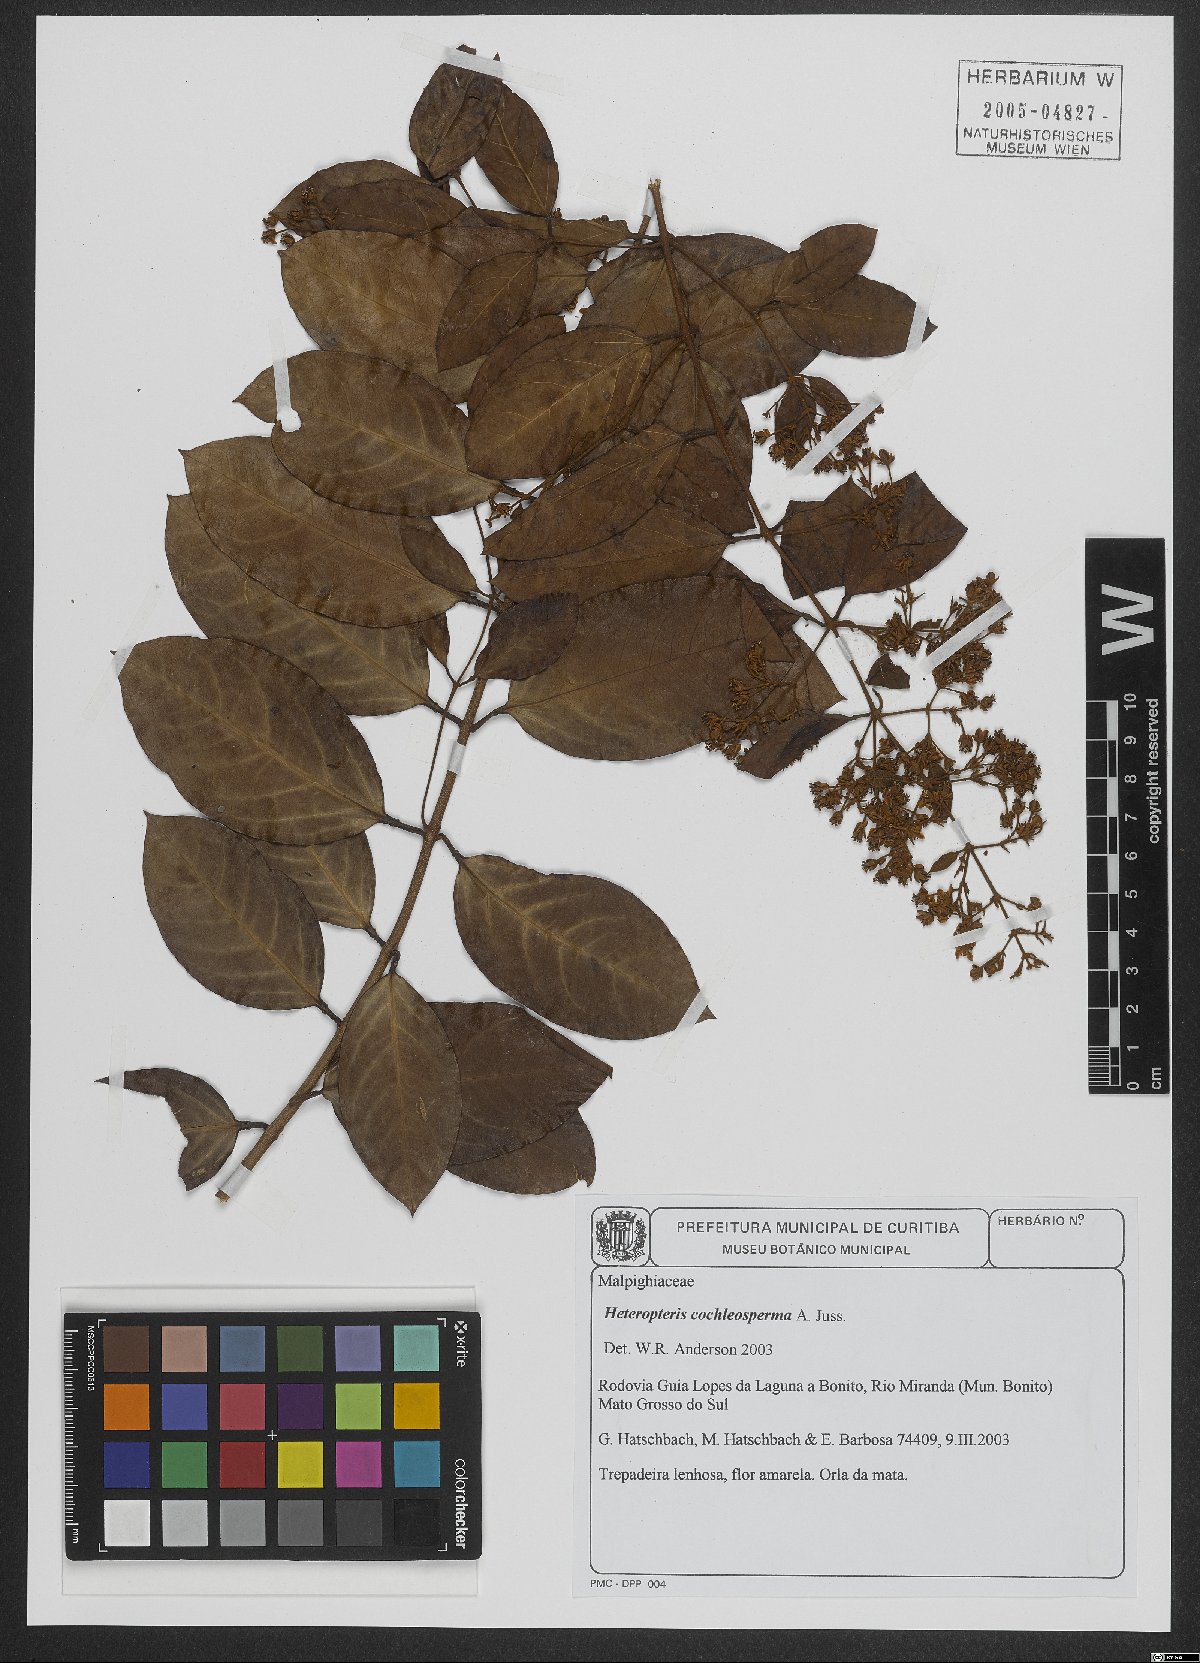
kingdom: Plantae
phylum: Tracheophyta
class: Magnoliopsida
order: Malpighiales
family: Malpighiaceae
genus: Heteropterys
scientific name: Heteropterys cochleosperma
